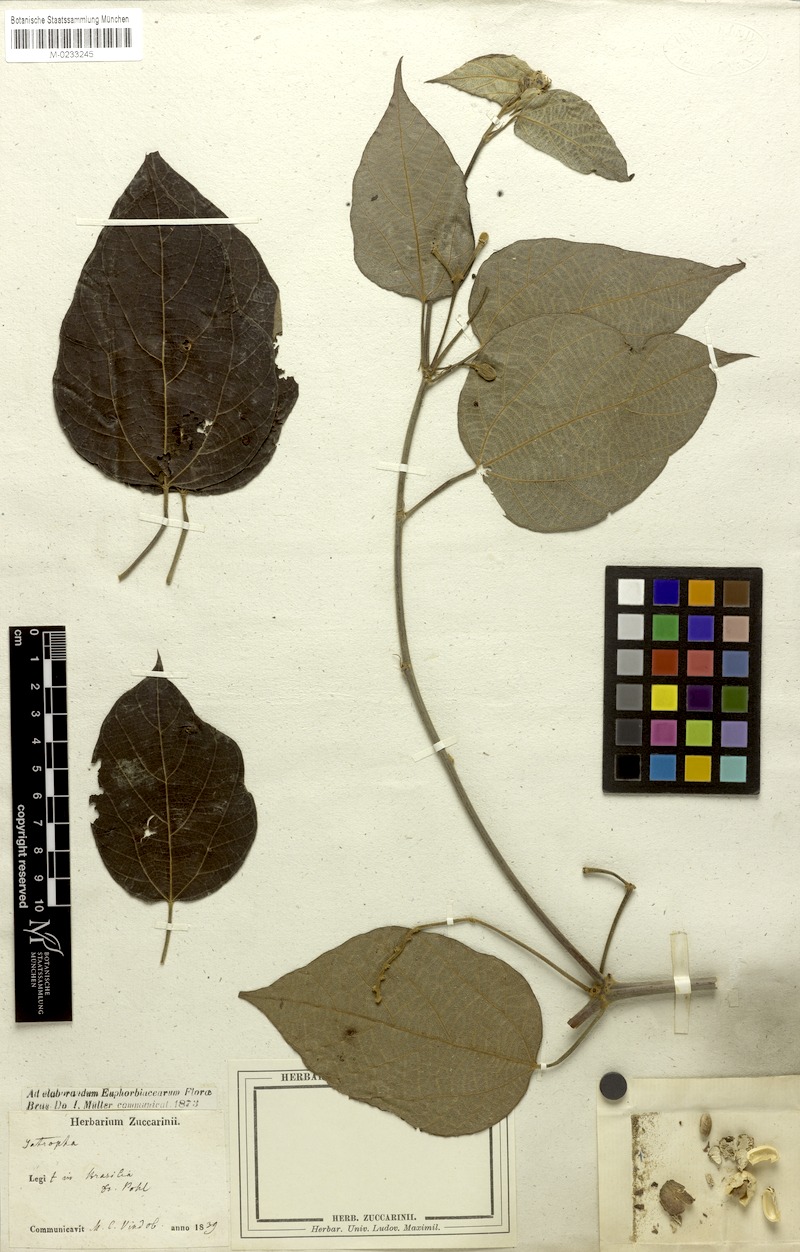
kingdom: Plantae
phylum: Tracheophyta
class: Magnoliopsida
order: Malpighiales
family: Euphorbiaceae
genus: Manihot
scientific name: Manihot anomala
